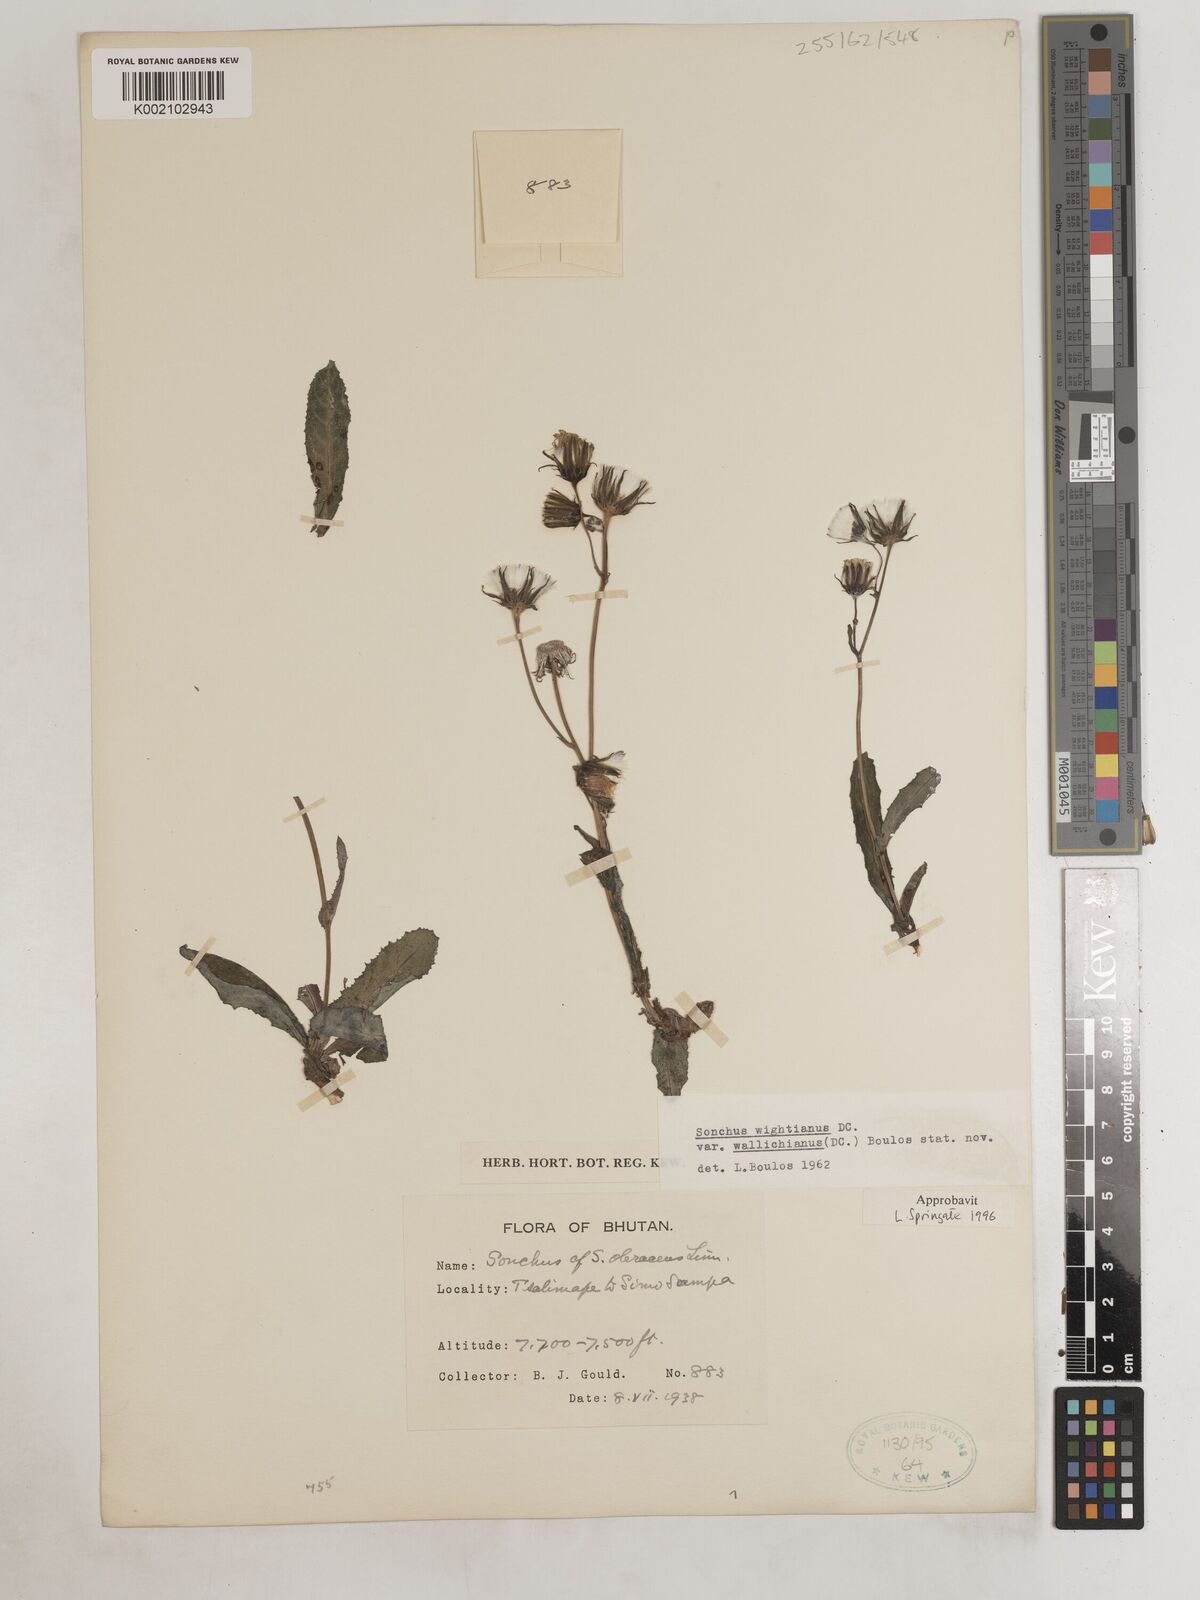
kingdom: Plantae
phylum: Tracheophyta
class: Magnoliopsida
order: Asterales
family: Asteraceae
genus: Sonchus
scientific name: Sonchus arvensis
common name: Perennial sow-thistle
